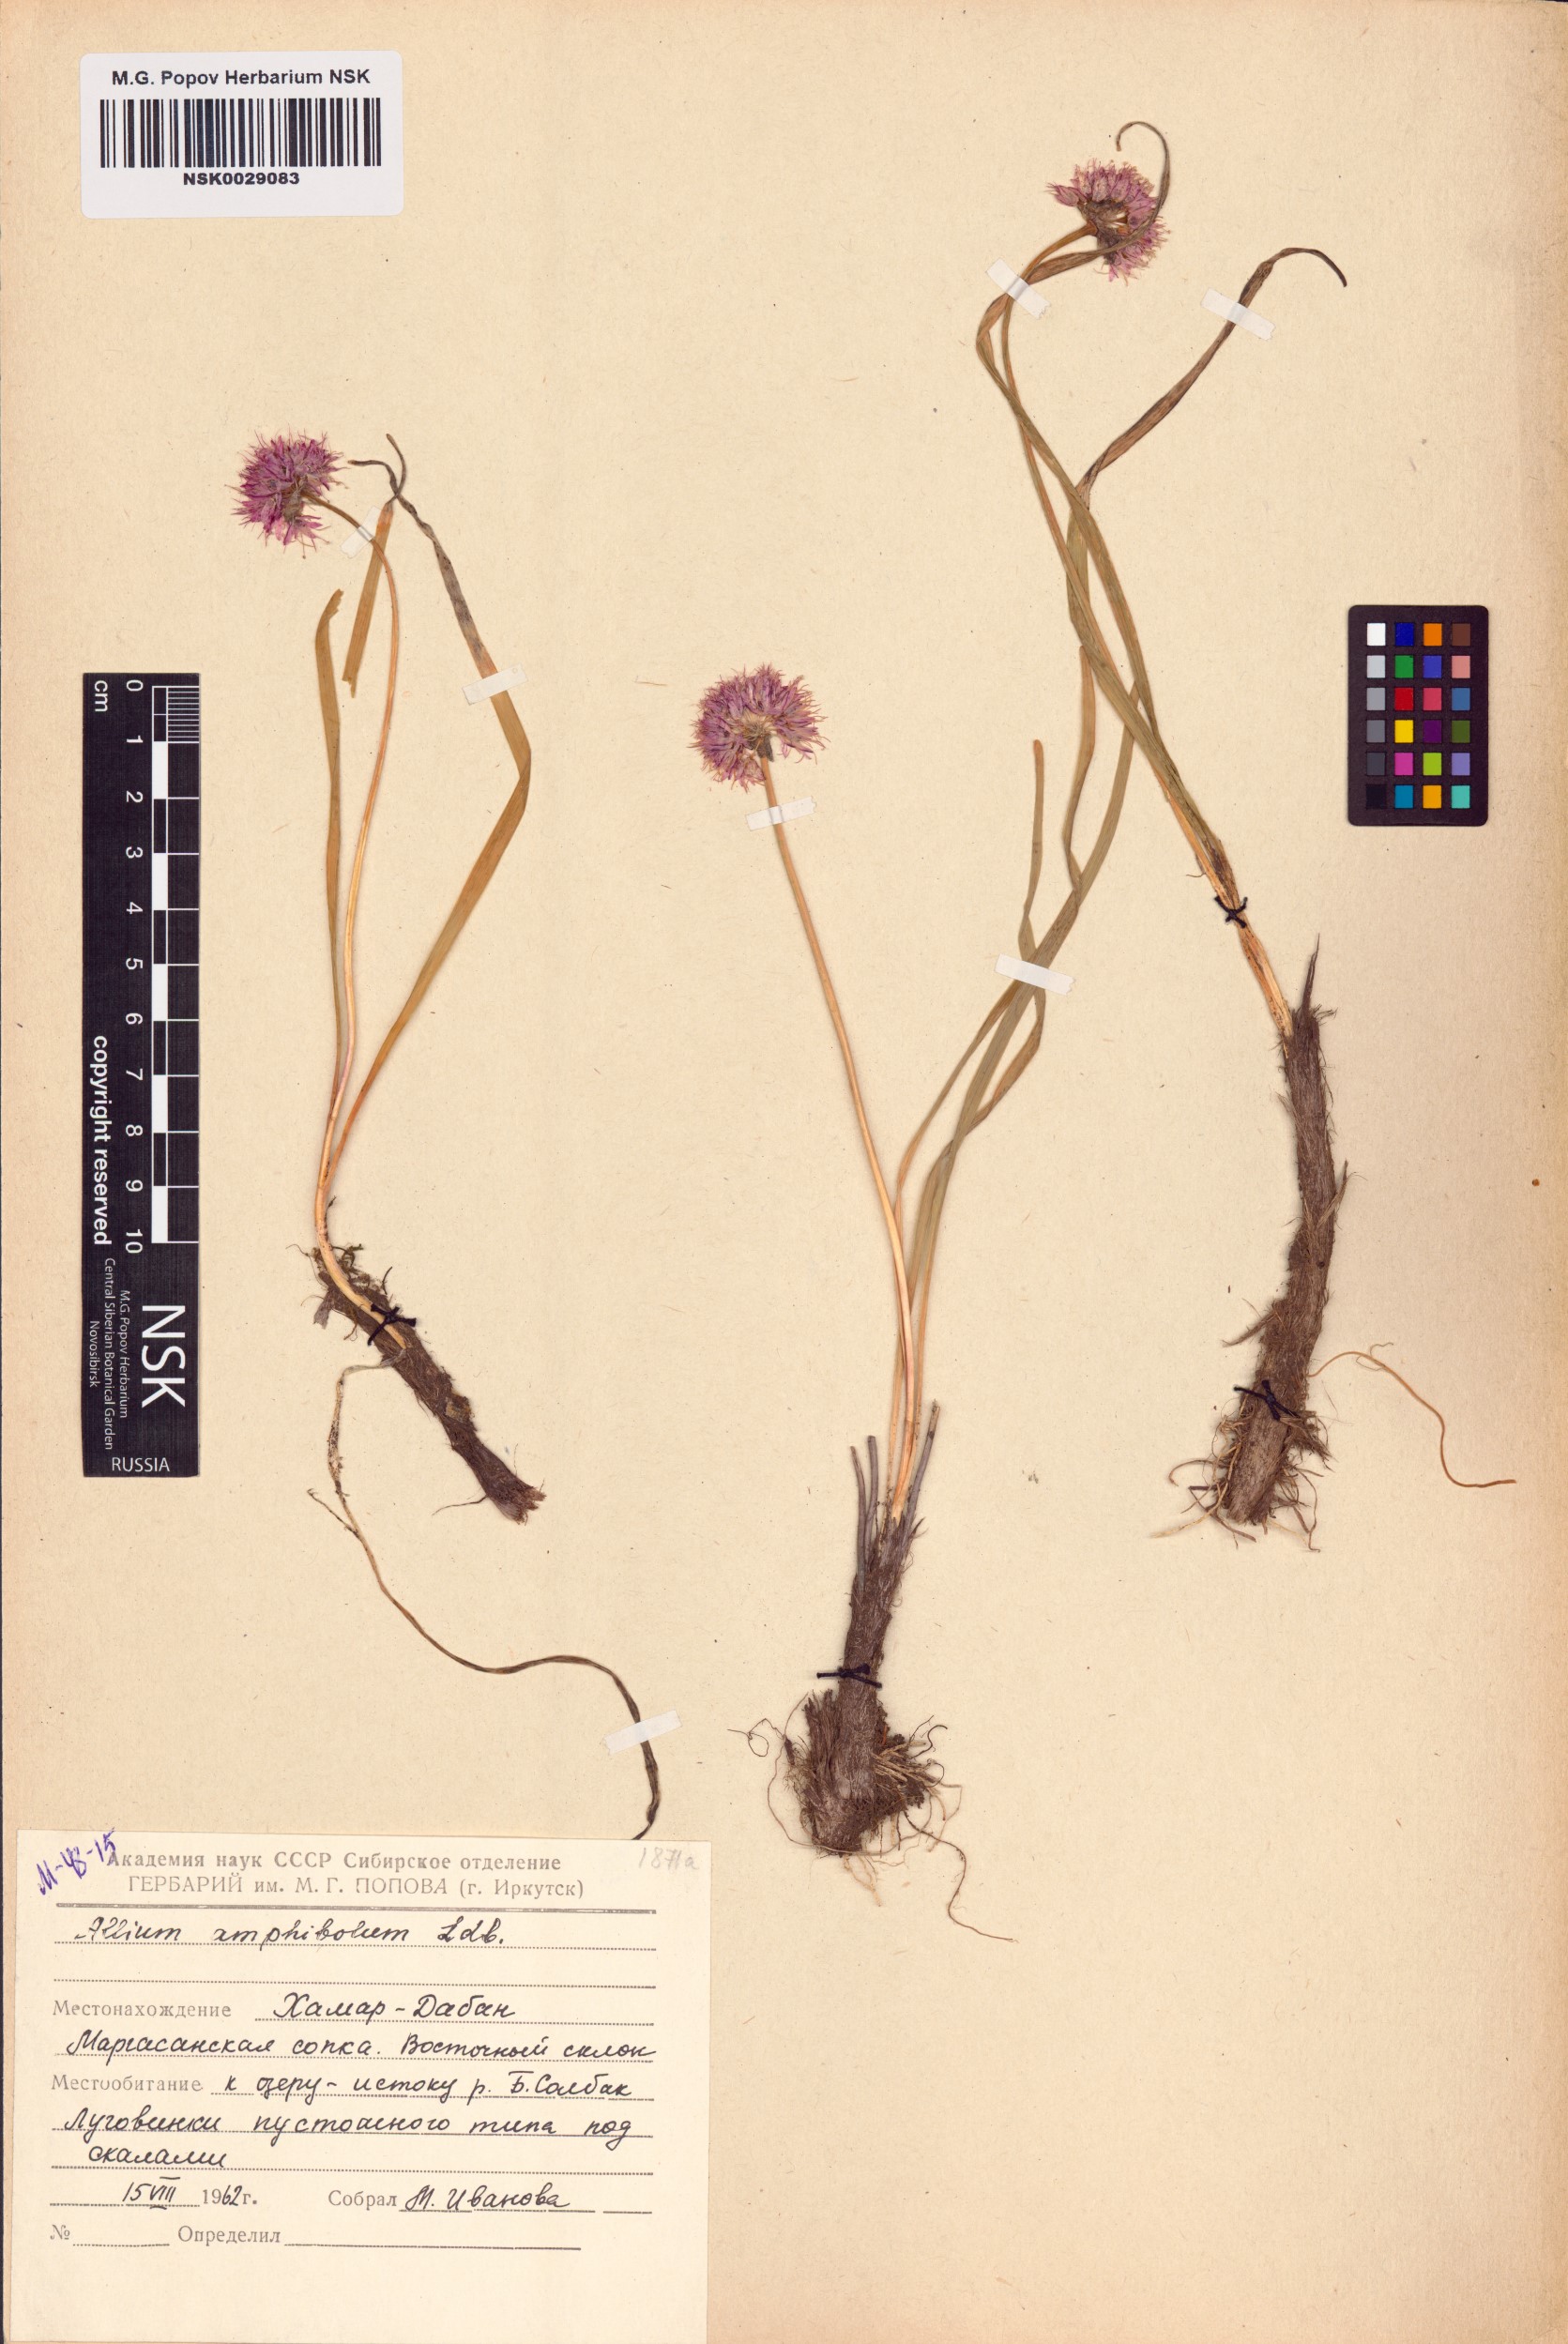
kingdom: Plantae
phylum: Tracheophyta
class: Liliopsida
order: Asparagales
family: Amaryllidaceae
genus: Allium
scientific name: Allium amphibolum
